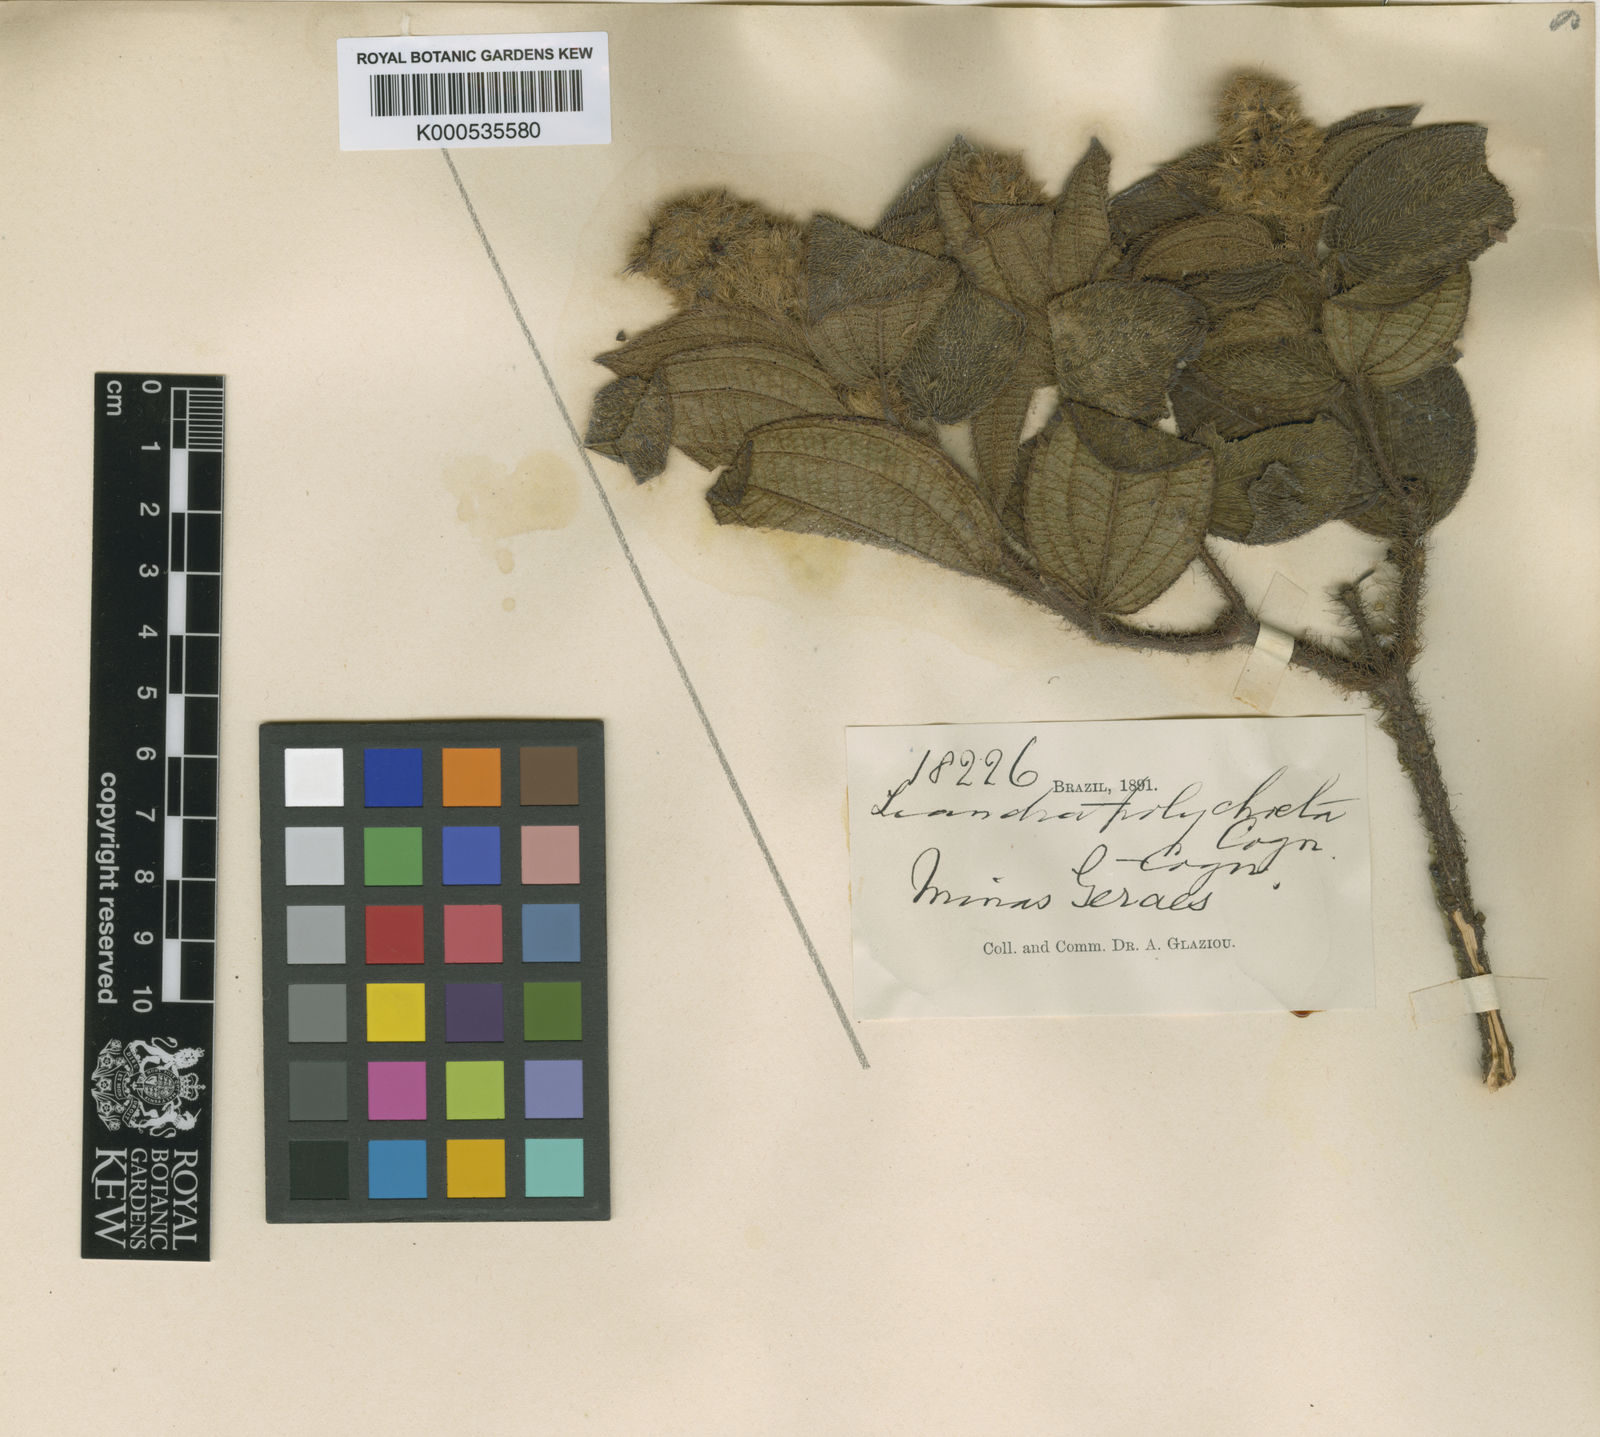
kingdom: Plantae
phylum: Tracheophyta
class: Magnoliopsida
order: Myrtales
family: Melastomataceae
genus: Miconia
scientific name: Miconia leapolychaeta
